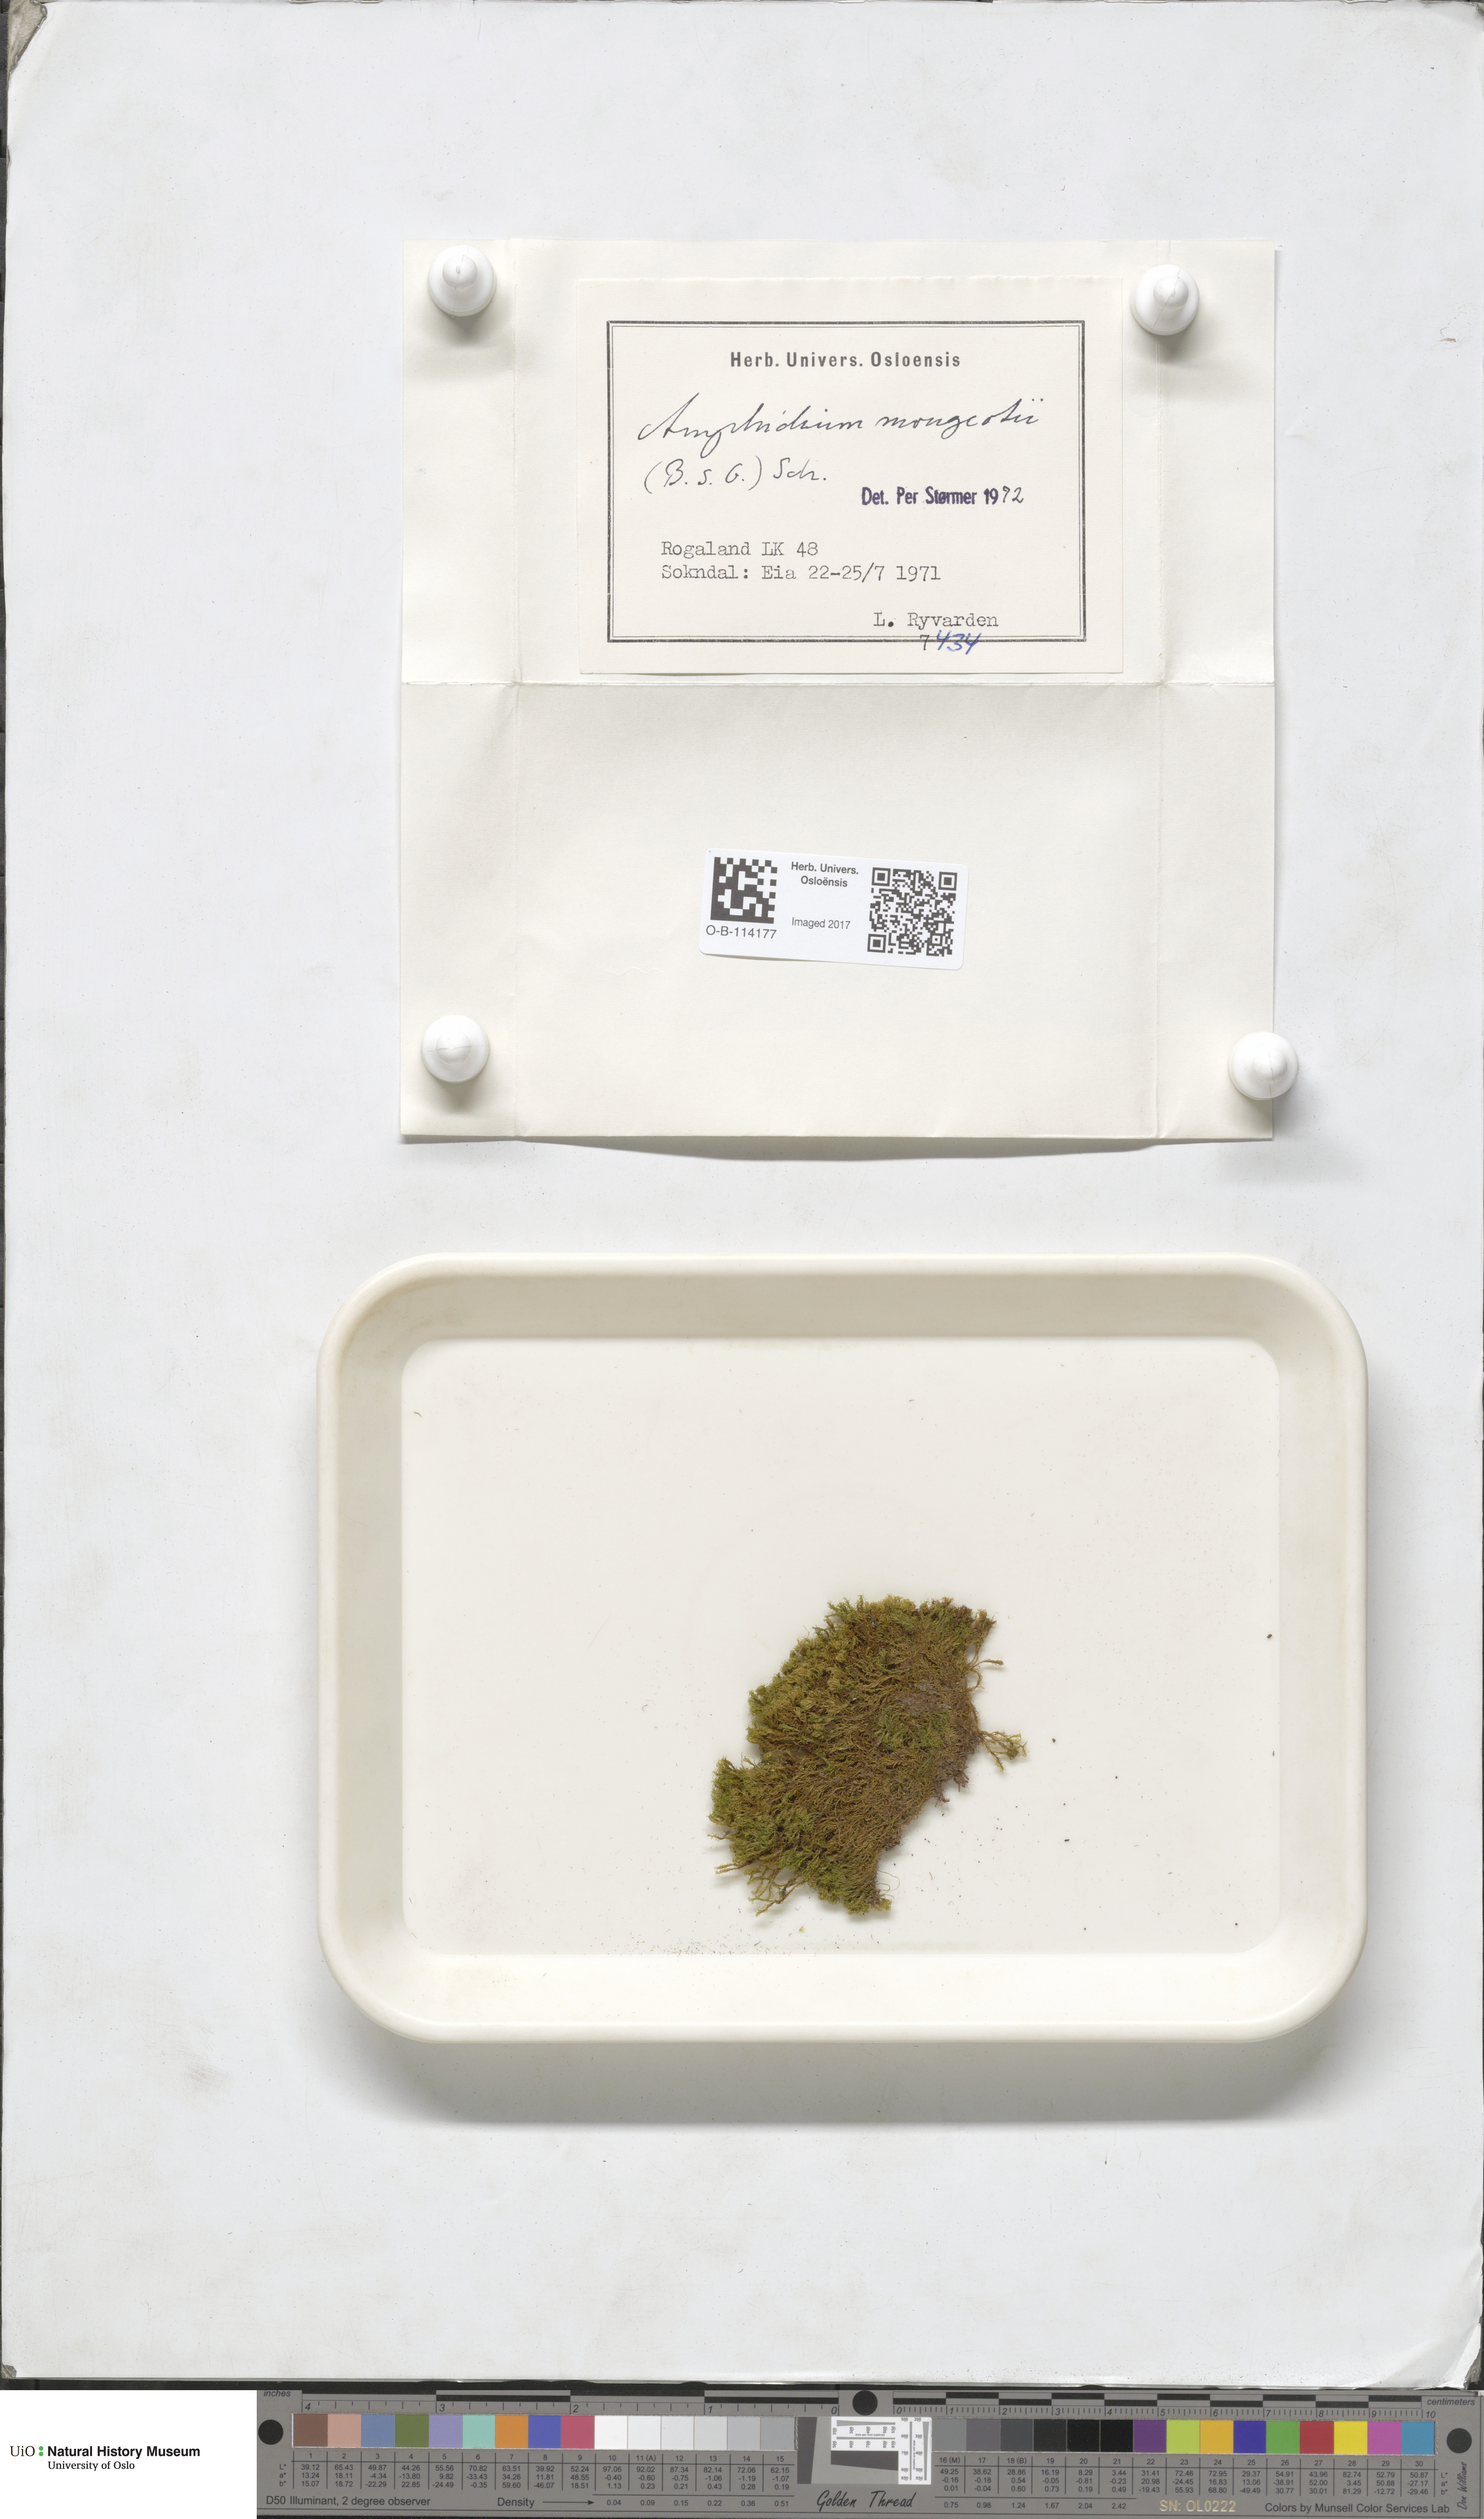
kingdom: Plantae
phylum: Bryophyta
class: Bryopsida
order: Dicranales
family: Amphidiaceae
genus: Amphidium
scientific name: Amphidium mougeotii
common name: Mougeot's yoke moss
